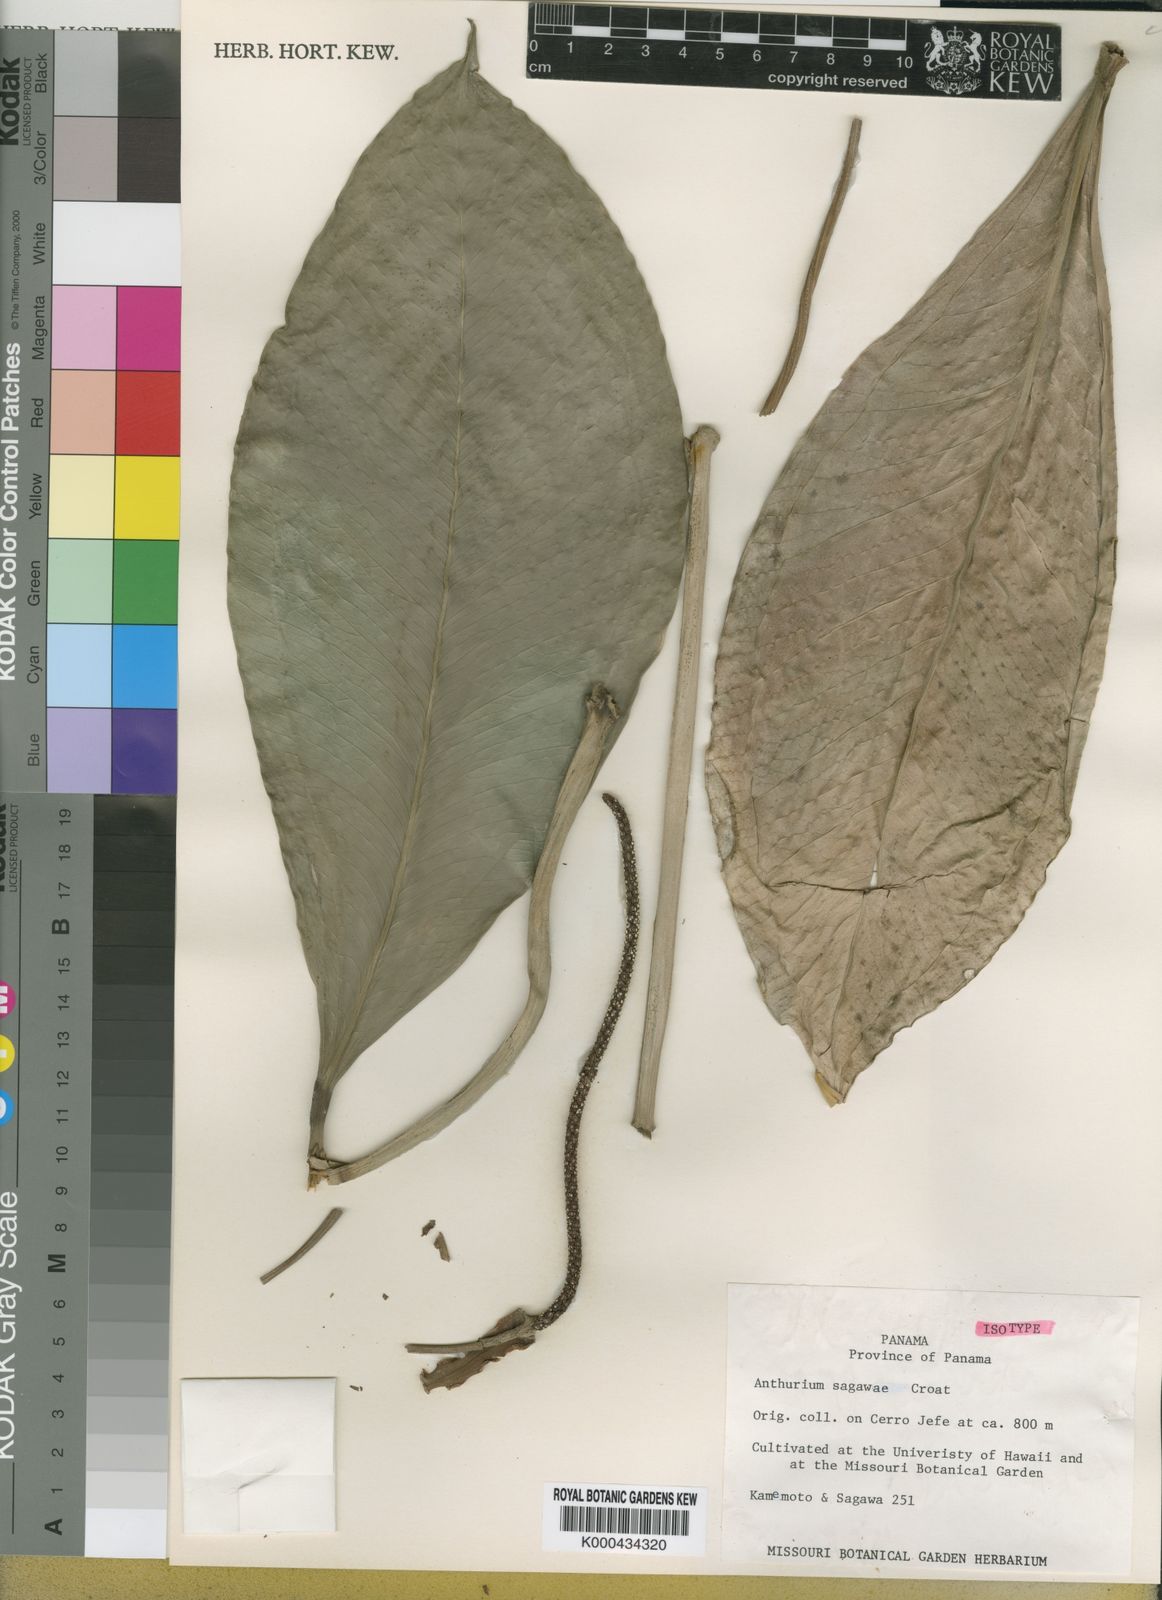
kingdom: Plantae
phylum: Tracheophyta
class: Liliopsida
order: Alismatales
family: Araceae
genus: Anthurium
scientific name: Anthurium sagawae
